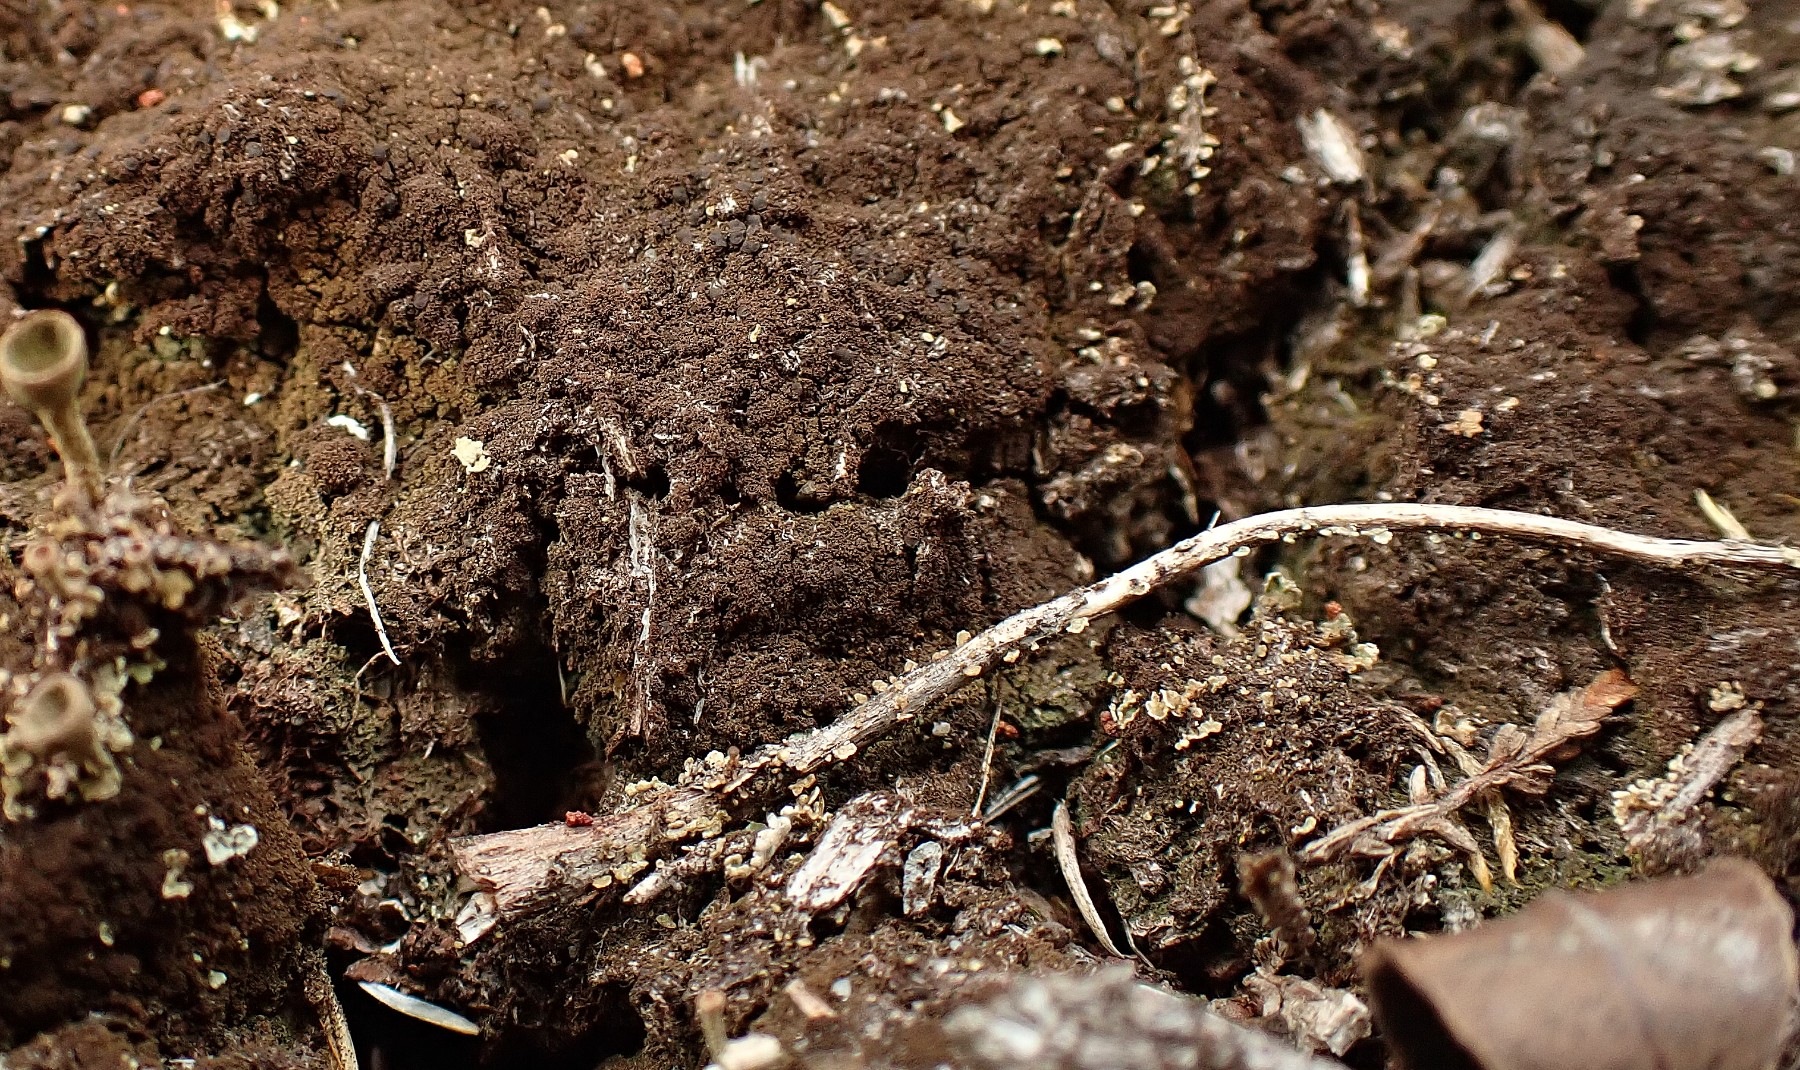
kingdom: Fungi
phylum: Ascomycota
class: Lecanoromycetes
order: Baeomycetales
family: Trapeliaceae
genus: Placynthiella
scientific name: Placynthiella icmalea
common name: stift-skivelav
